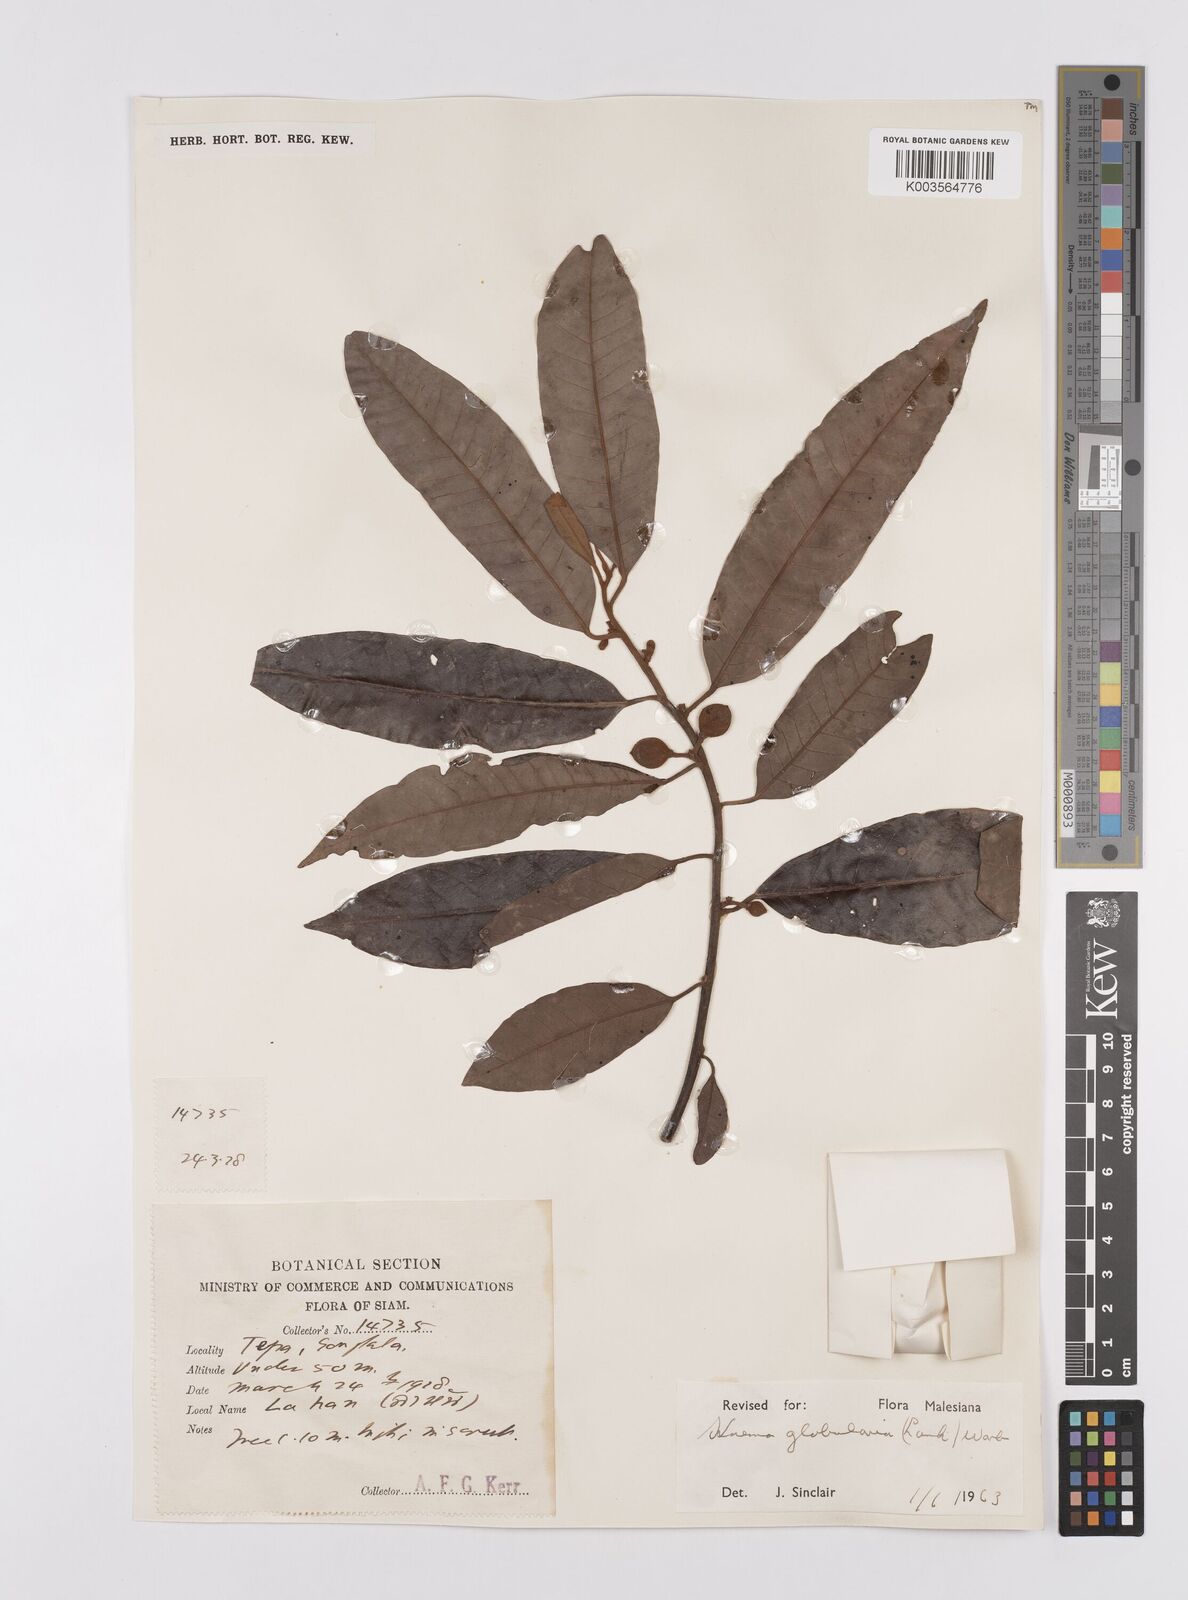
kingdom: Plantae
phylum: Tracheophyta
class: Magnoliopsida
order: Magnoliales
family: Myristicaceae
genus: Knema
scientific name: Knema globularia
